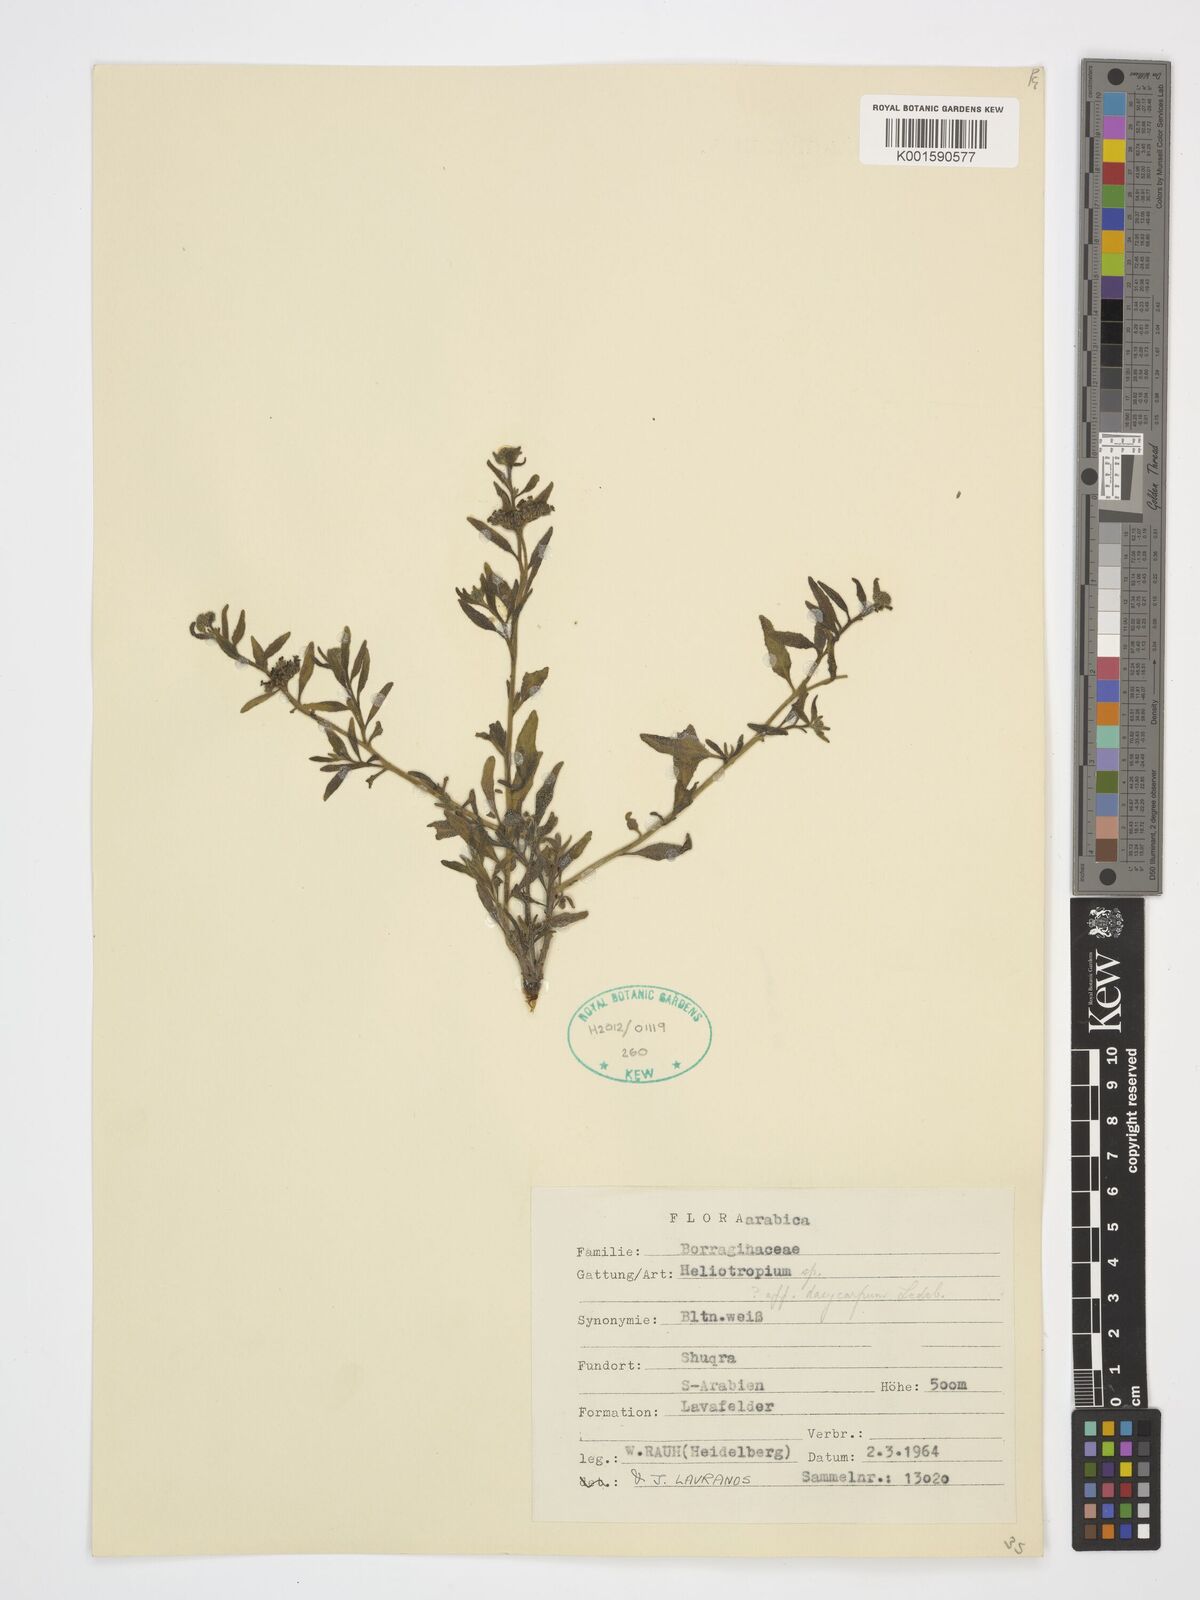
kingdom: Plantae
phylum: Tracheophyta
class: Magnoliopsida
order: Boraginales
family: Heliotropiaceae
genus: Heliotropium
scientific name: Heliotropium dasycarpum
